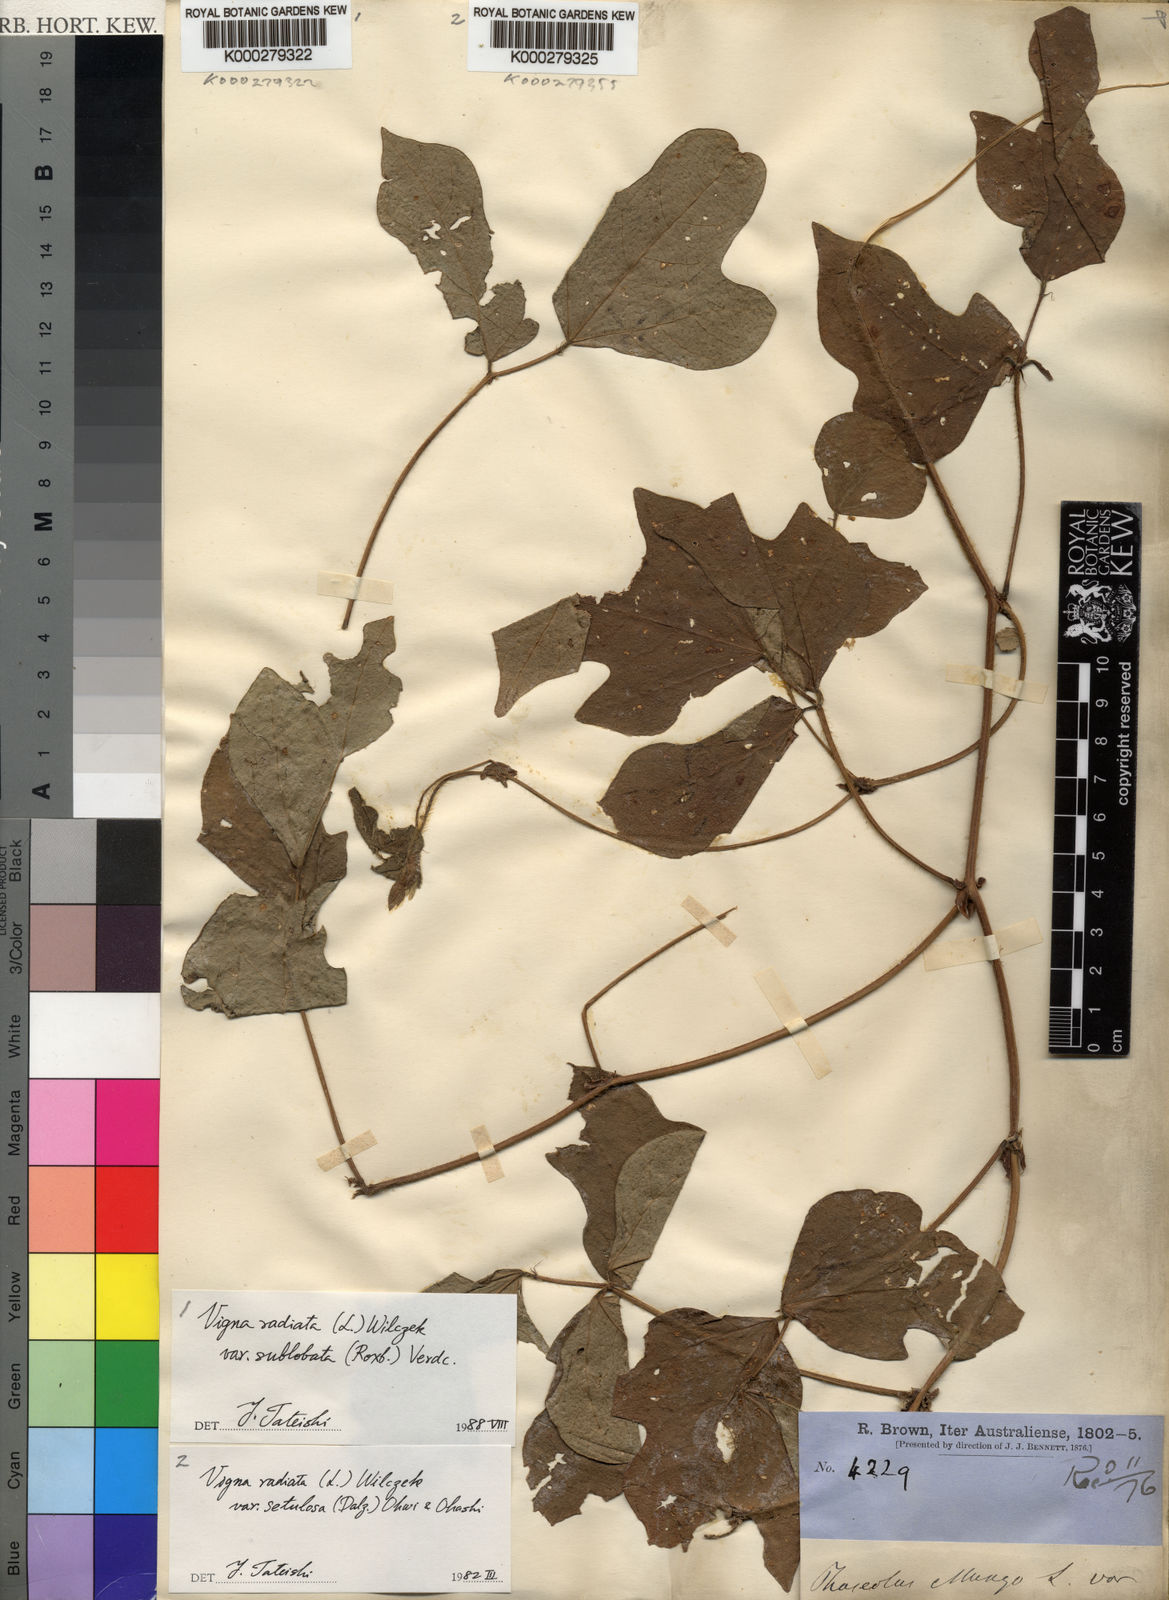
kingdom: Plantae
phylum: Tracheophyta
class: Magnoliopsida
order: Fabales
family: Fabaceae
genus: Vigna
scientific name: Vigna radiata
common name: Mung-bean
